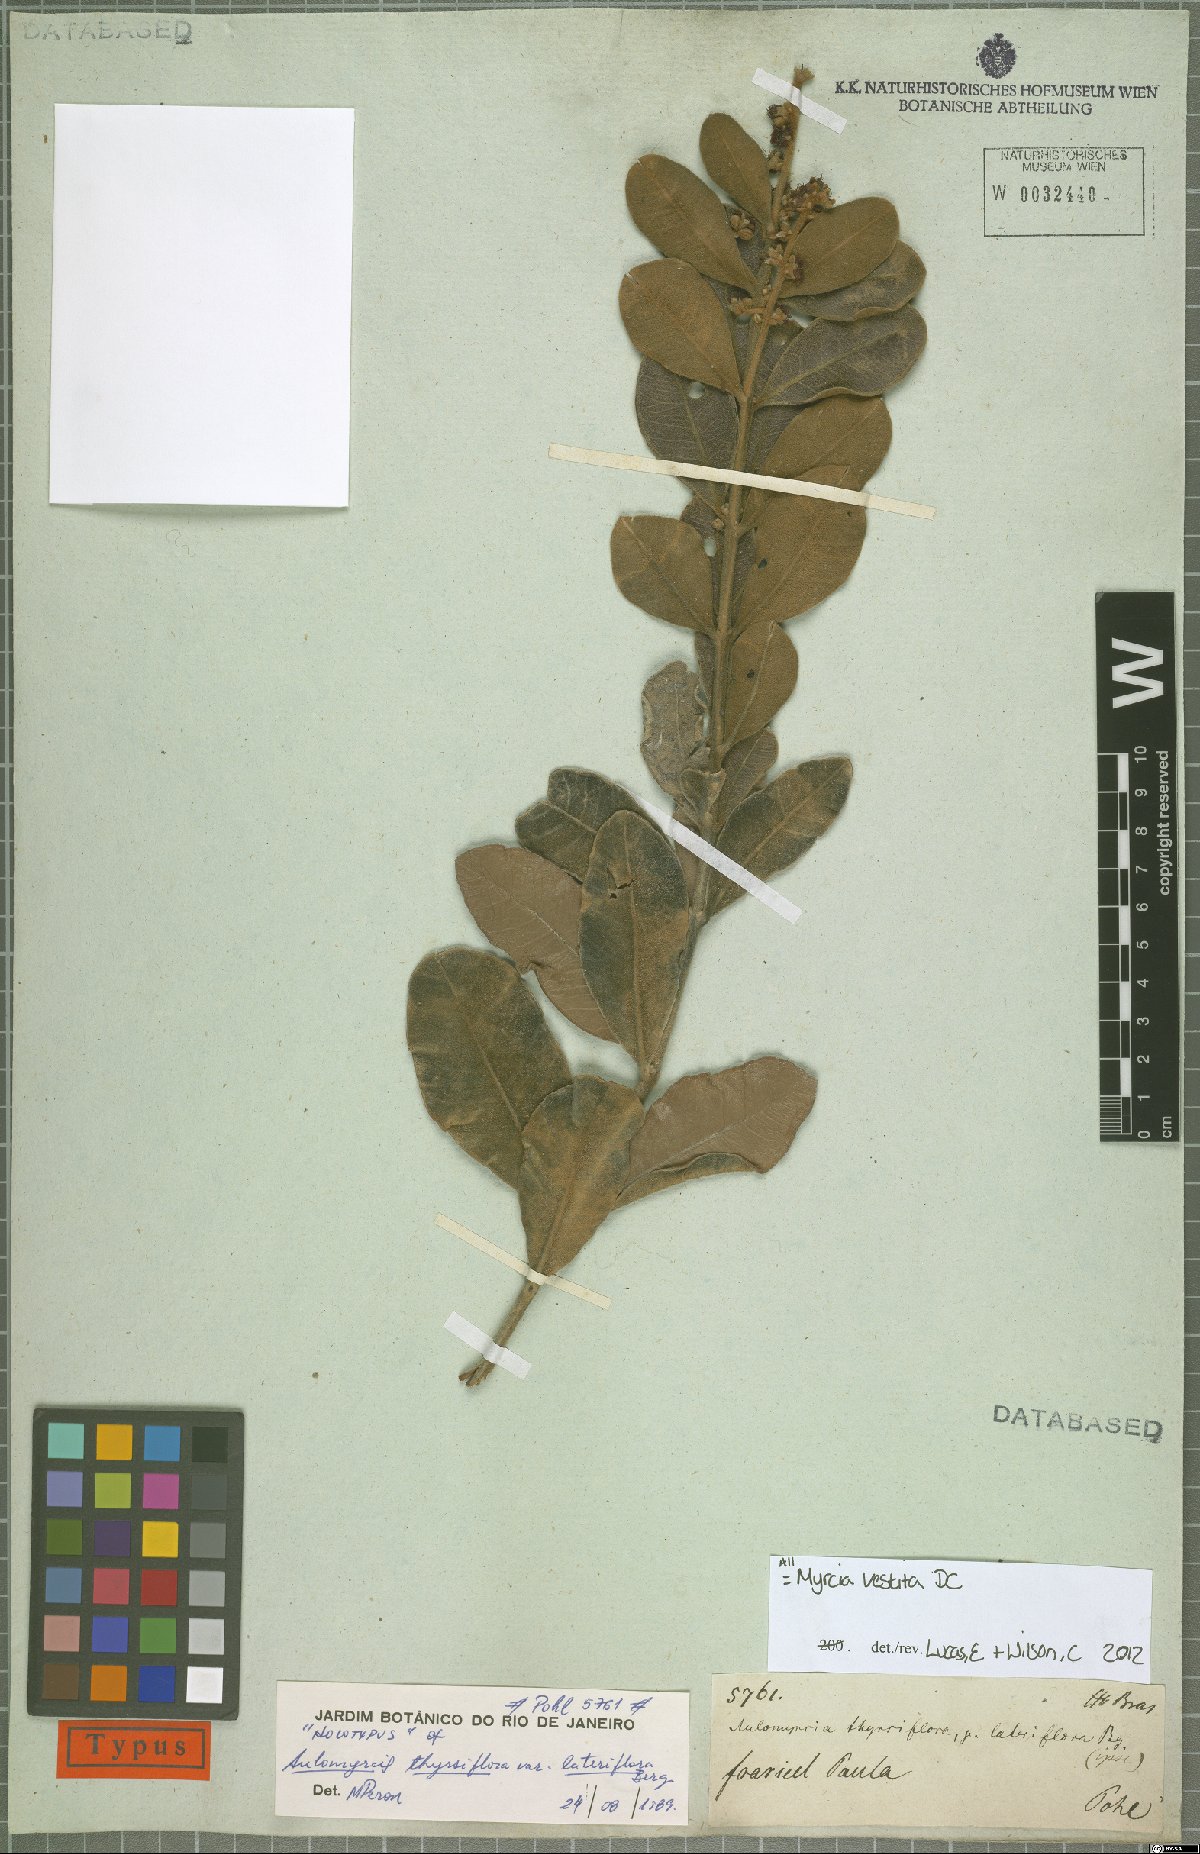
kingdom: Plantae
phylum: Tracheophyta
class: Magnoliopsida
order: Myrtales
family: Myrtaceae
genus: Myrcia
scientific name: Myrcia vestita
